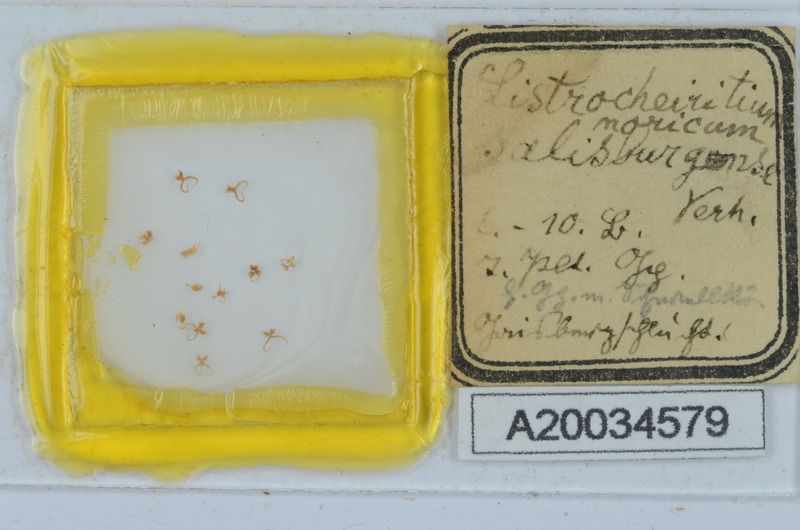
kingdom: Animalia
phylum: Arthropoda
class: Diplopoda
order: Chordeumatida
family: Craspedosomatidae
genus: Listrocheiritium
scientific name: Listrocheiritium noricum
